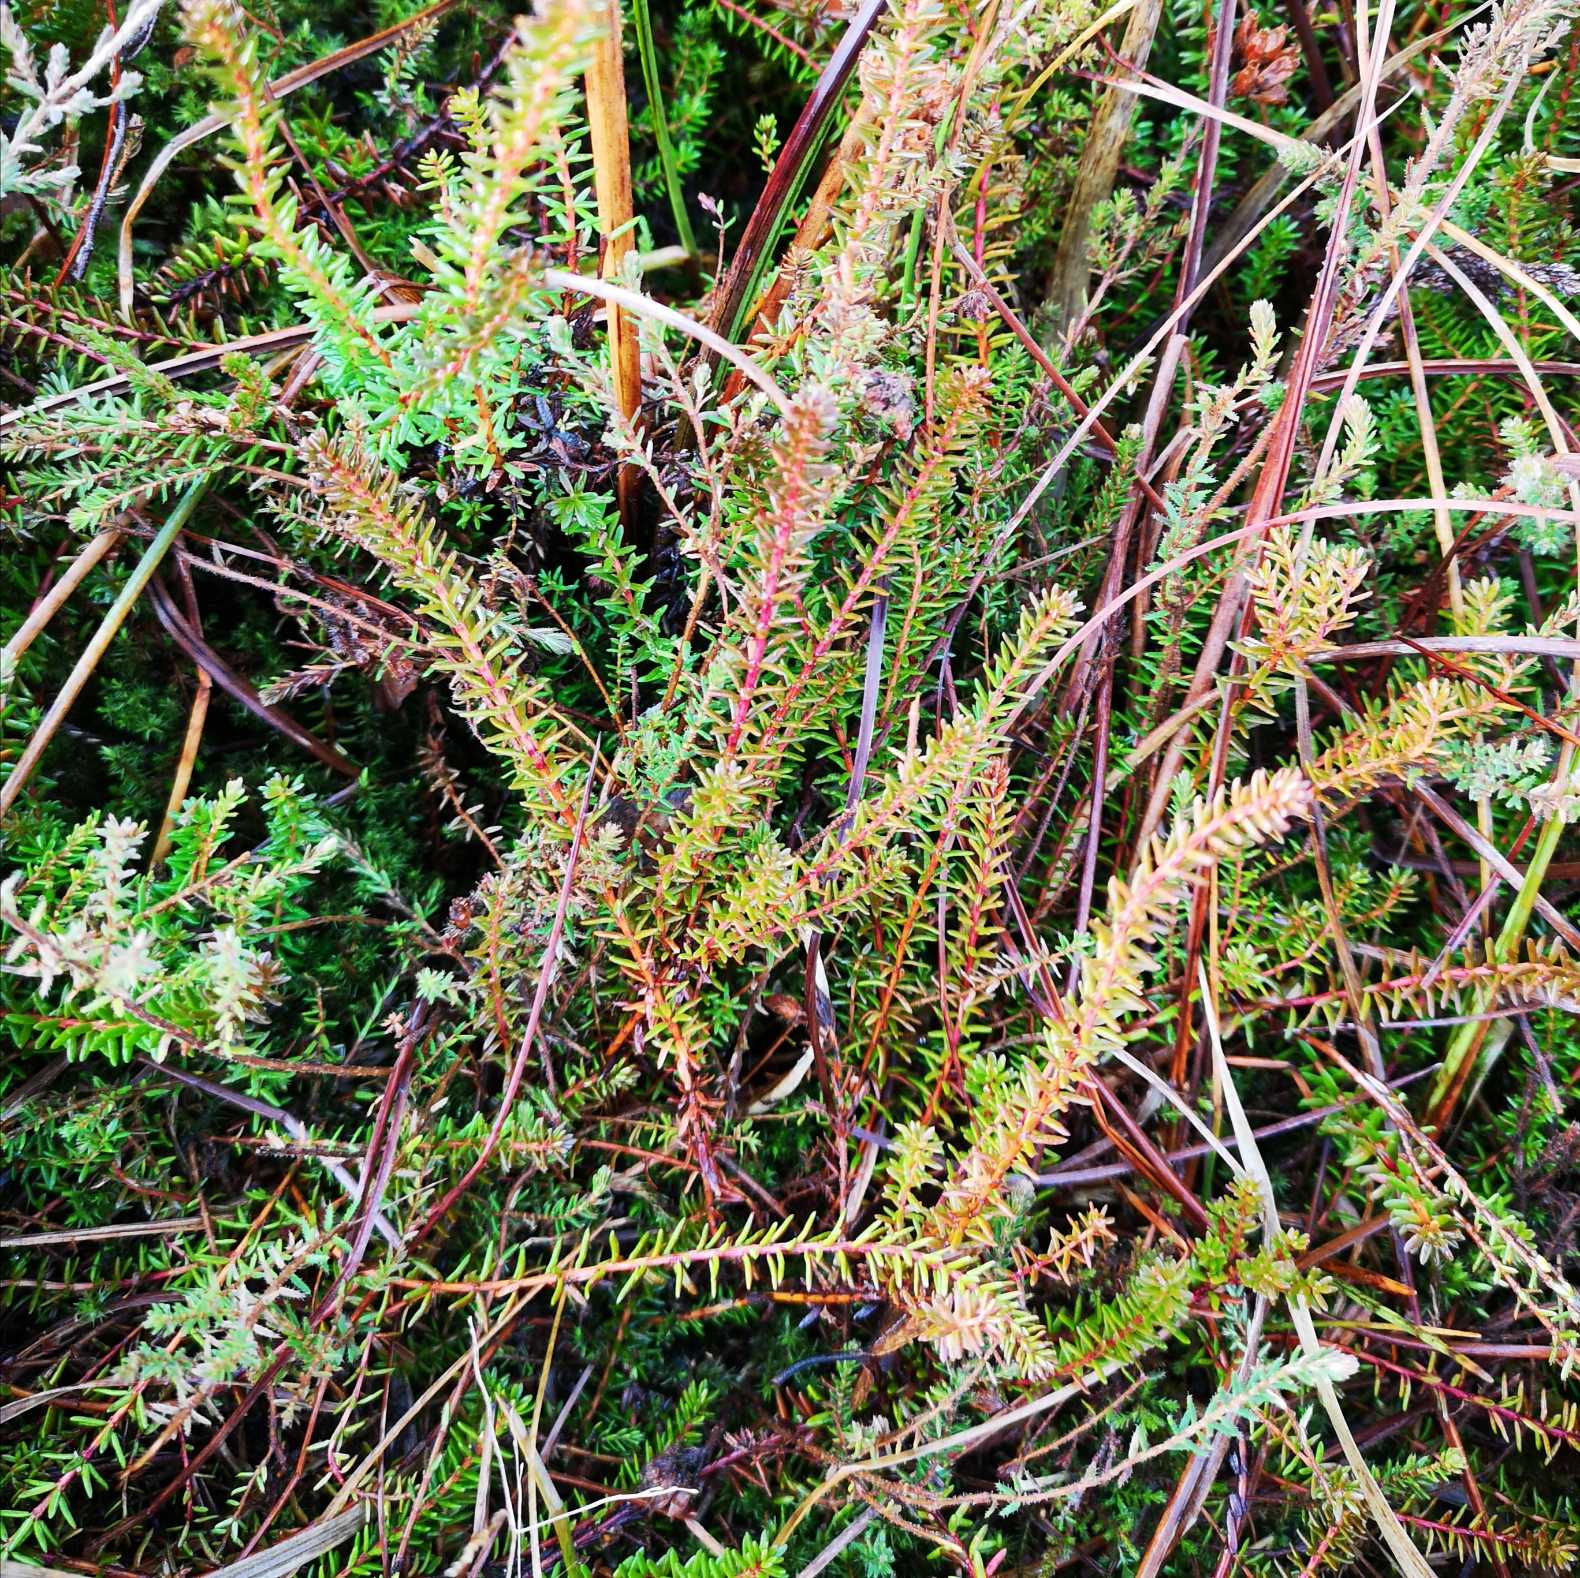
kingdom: Plantae
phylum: Tracheophyta
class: Magnoliopsida
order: Ericales
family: Ericaceae
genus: Empetrum
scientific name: Empetrum nigrum
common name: Revling
